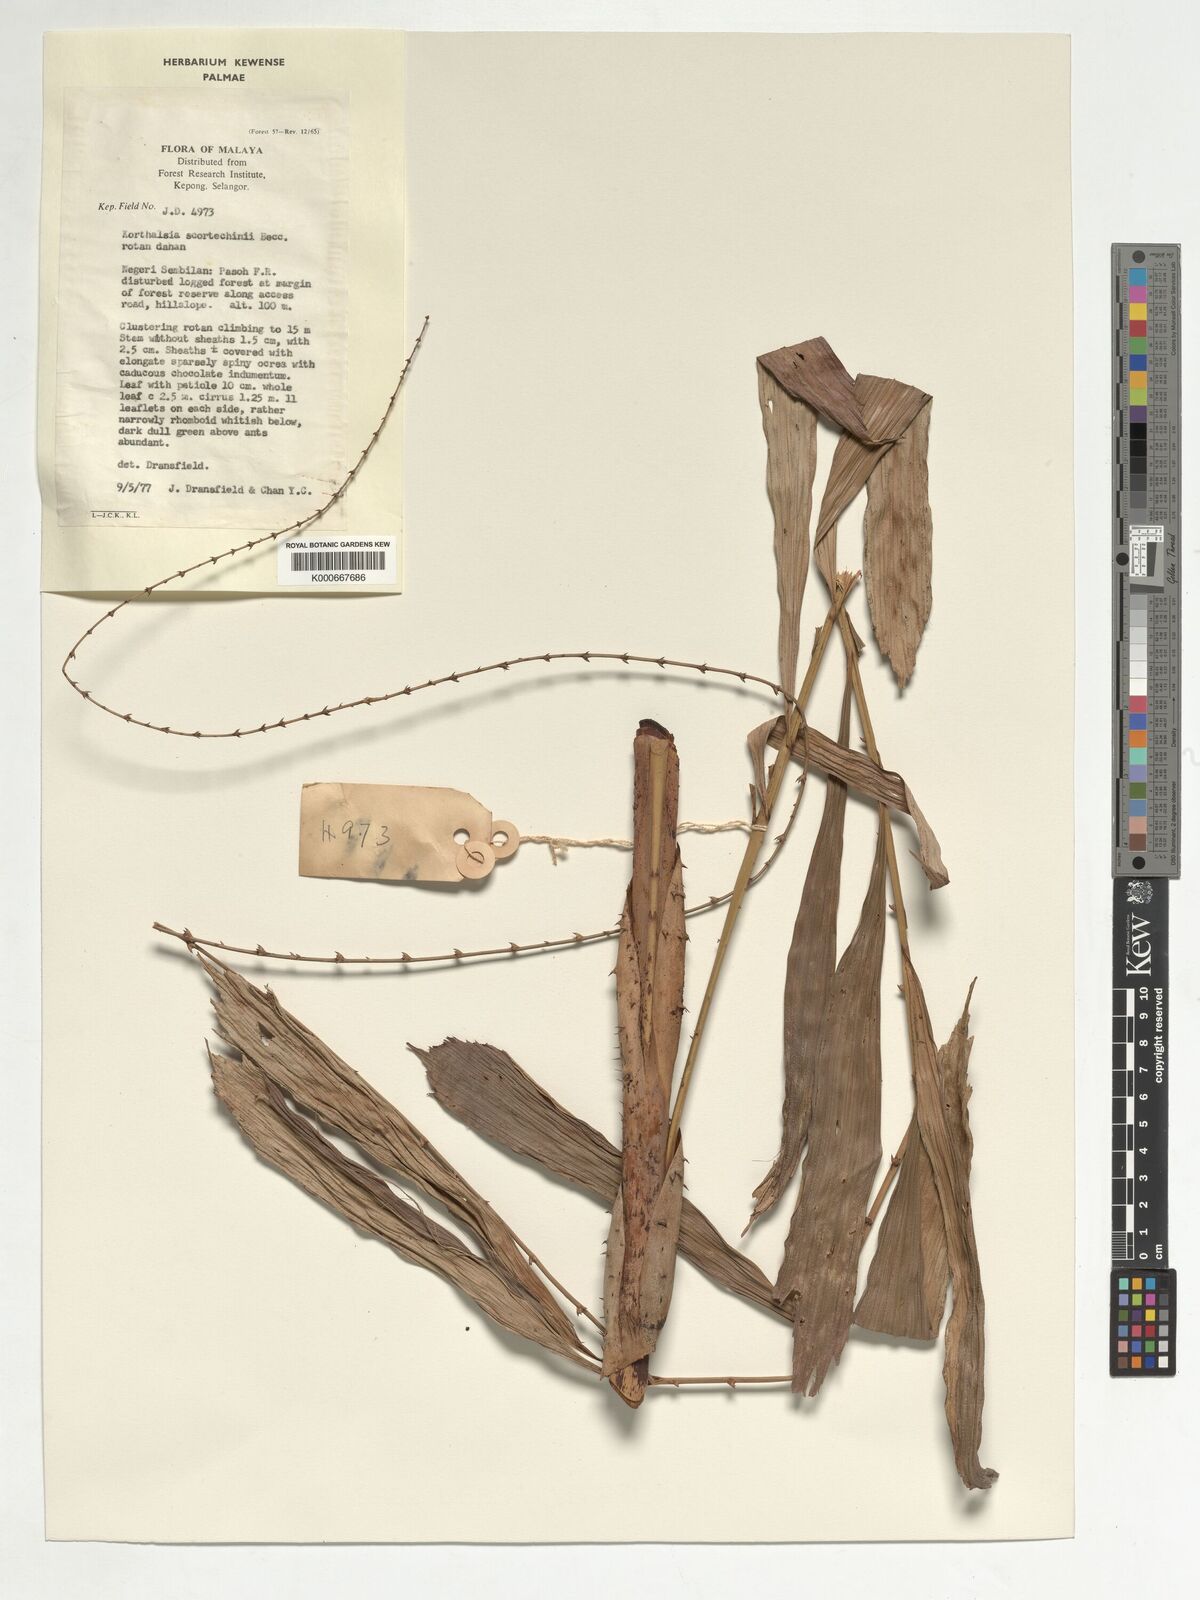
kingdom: Plantae
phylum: Tracheophyta
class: Liliopsida
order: Arecales
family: Arecaceae
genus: Korthalsia
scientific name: Korthalsia scortechinii
